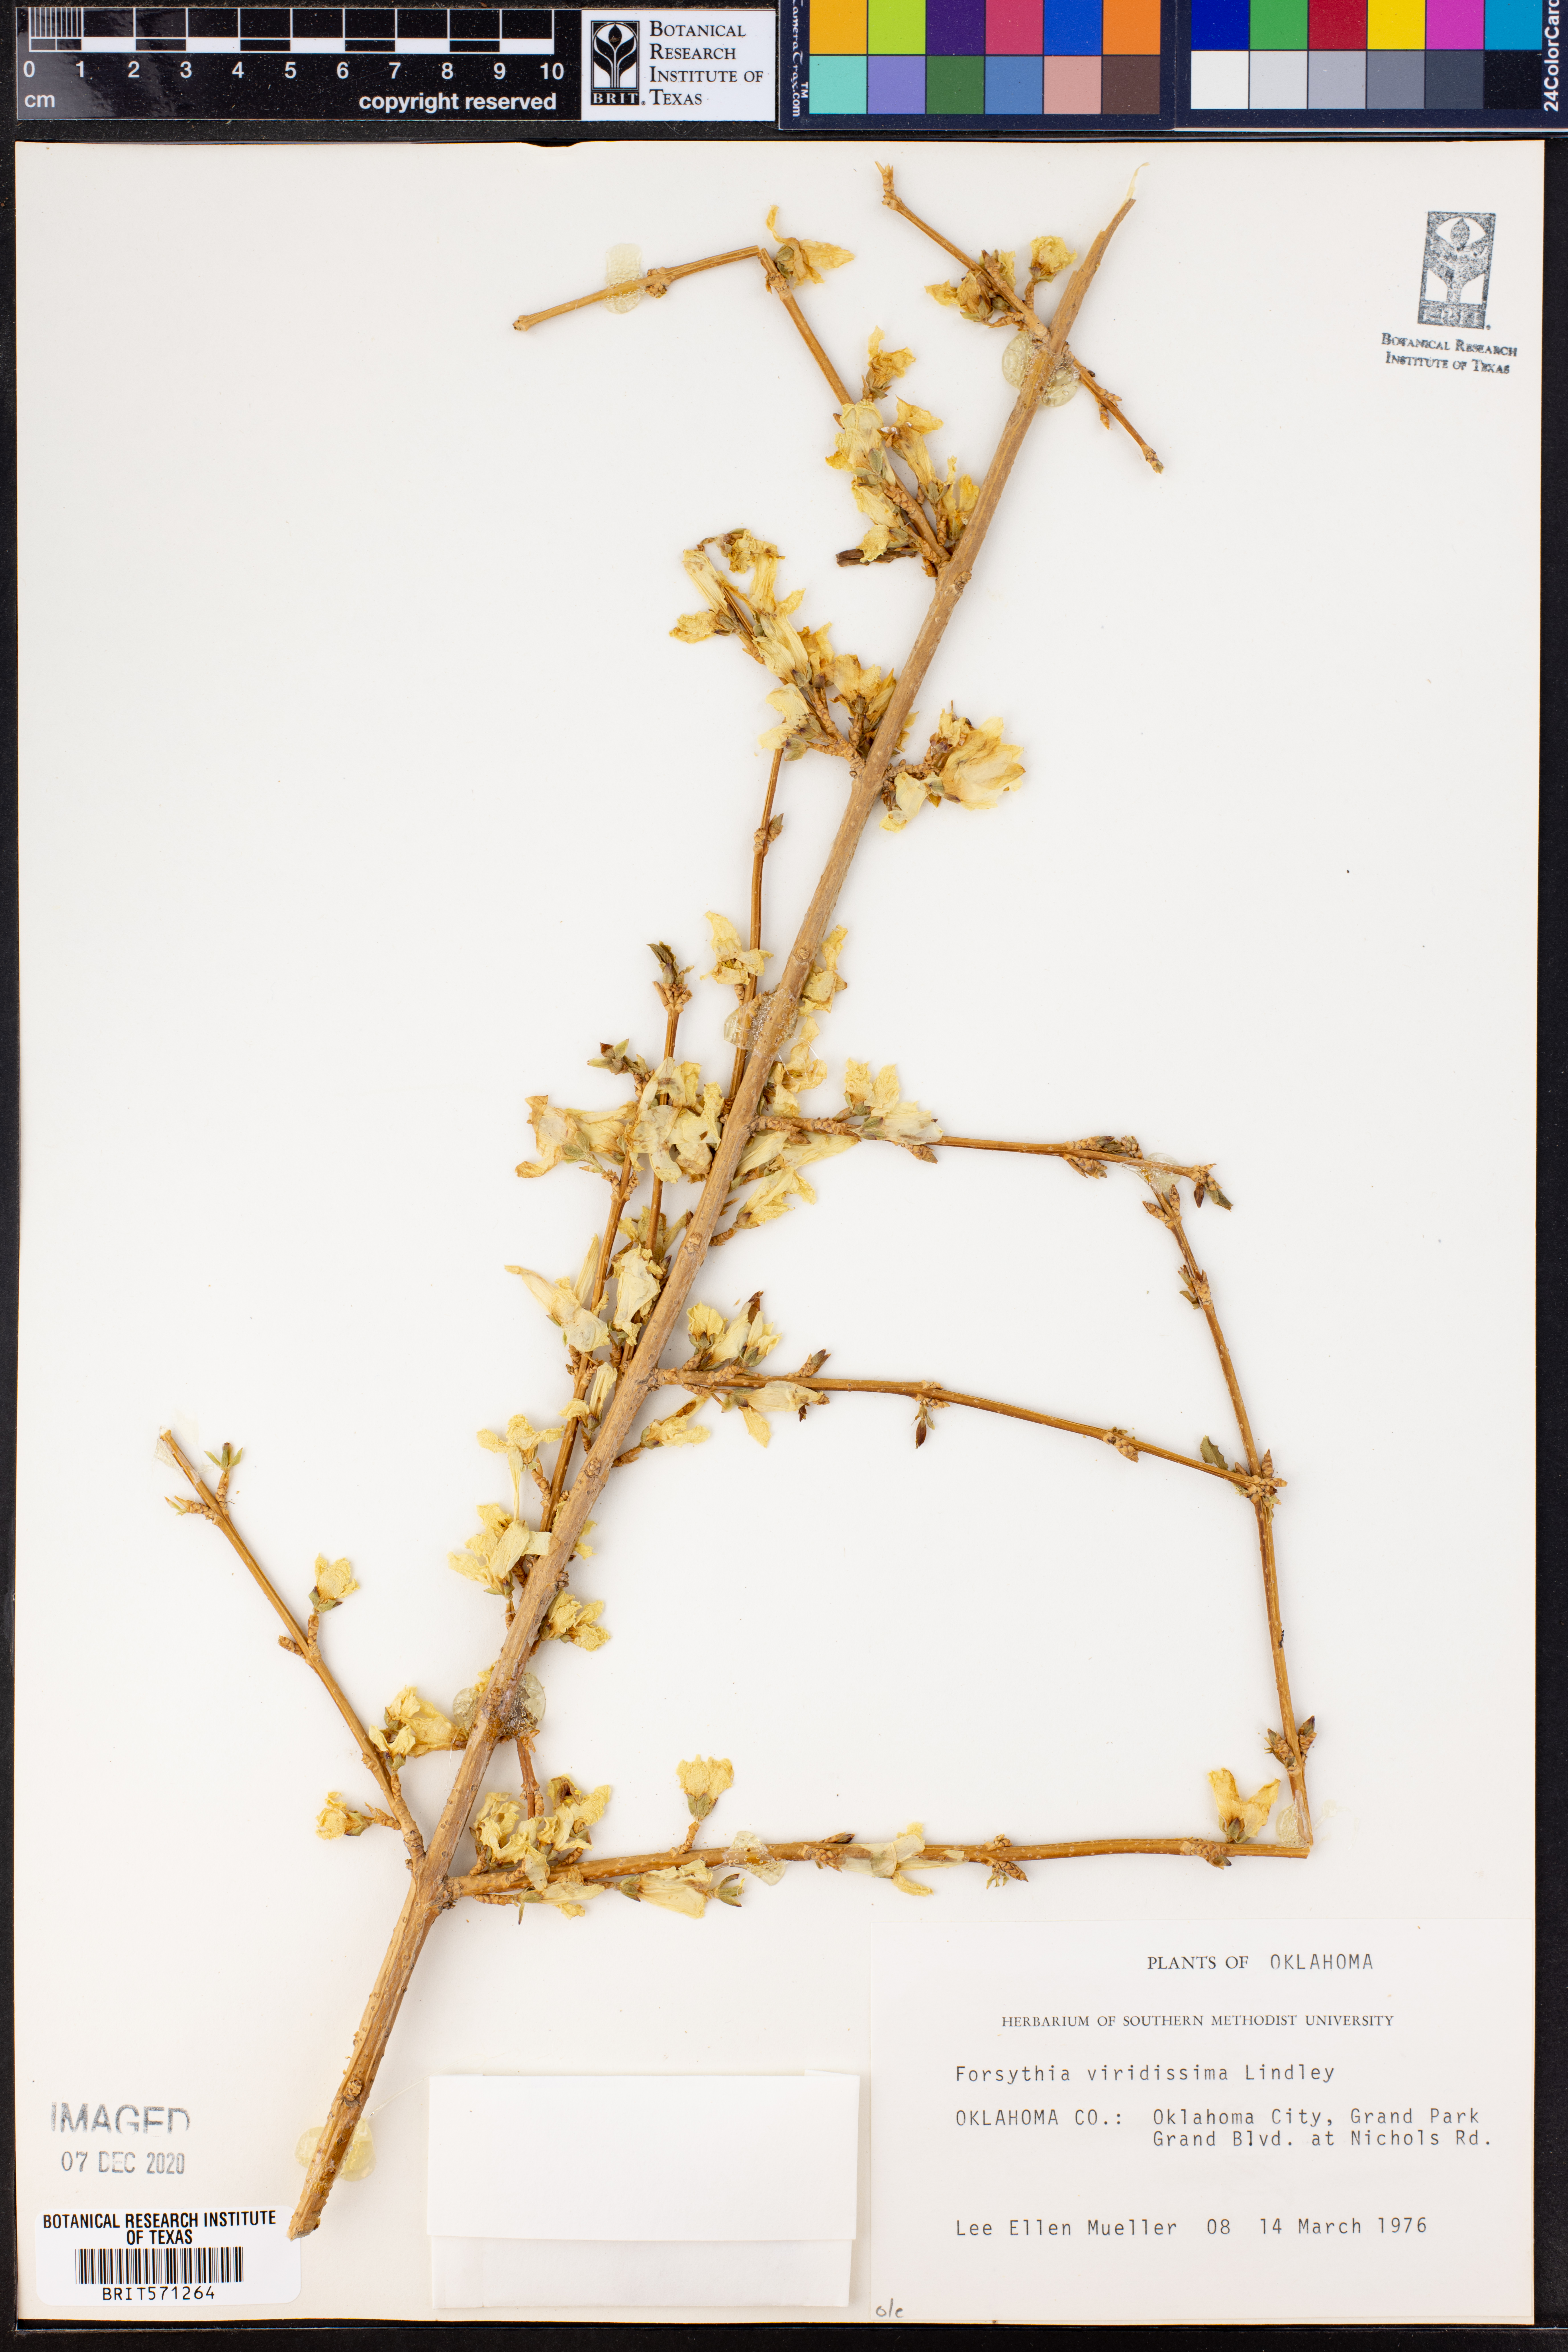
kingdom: Plantae
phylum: Tracheophyta
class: Magnoliopsida
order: Lamiales
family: Oleaceae
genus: Forsythia
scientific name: Forsythia viridissima
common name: Greenstem forsythia
